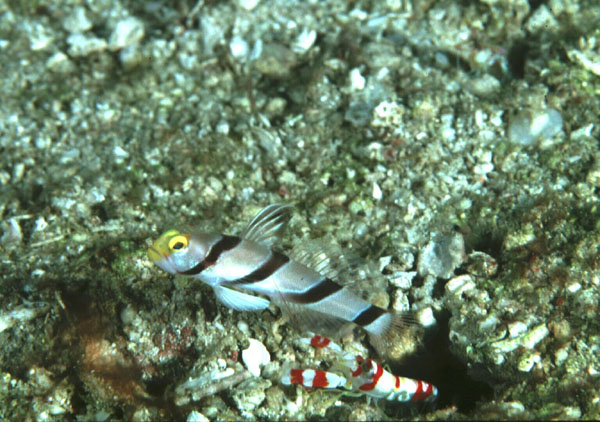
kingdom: Animalia
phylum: Chordata
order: Perciformes
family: Gobiidae
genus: Stonogobiops
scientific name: Stonogobiops xanthorhinica
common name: Yellow-snout shrimp-goby
